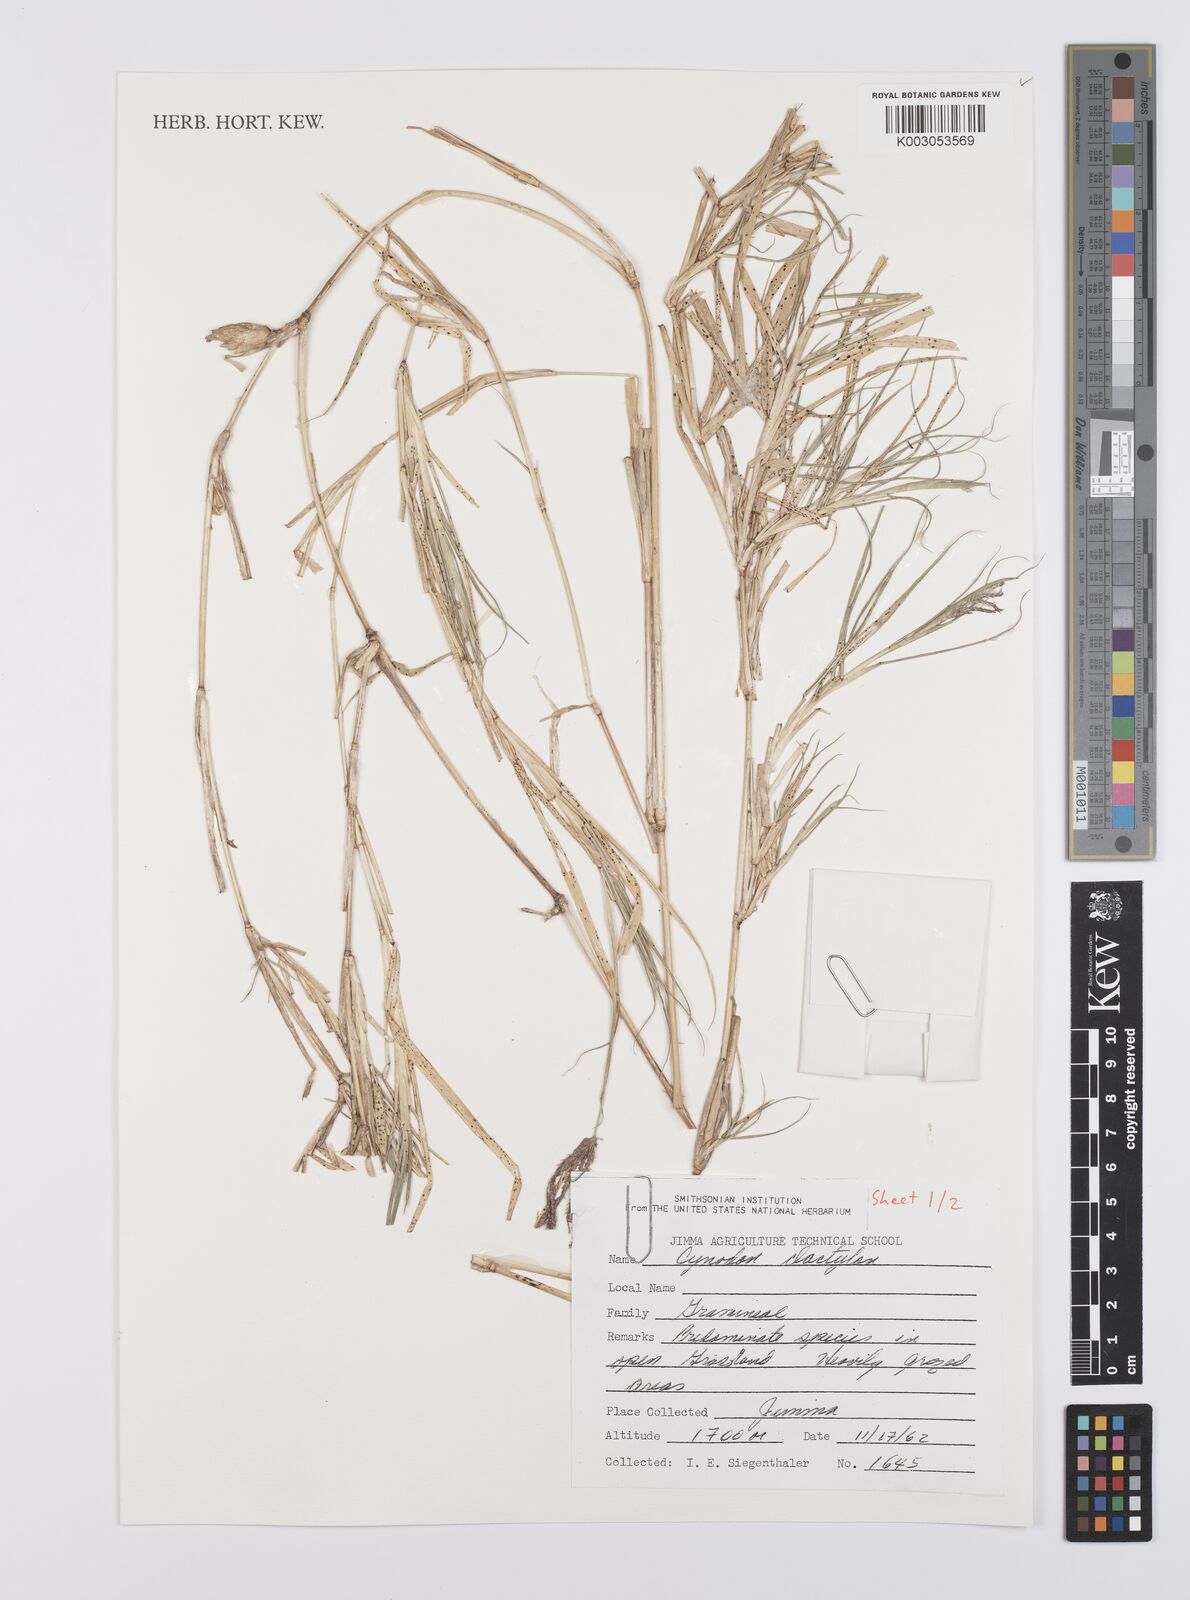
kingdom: Plantae
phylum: Tracheophyta
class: Liliopsida
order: Poales
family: Poaceae
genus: Cynodon
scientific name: Cynodon dactylon
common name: Bermuda grass
